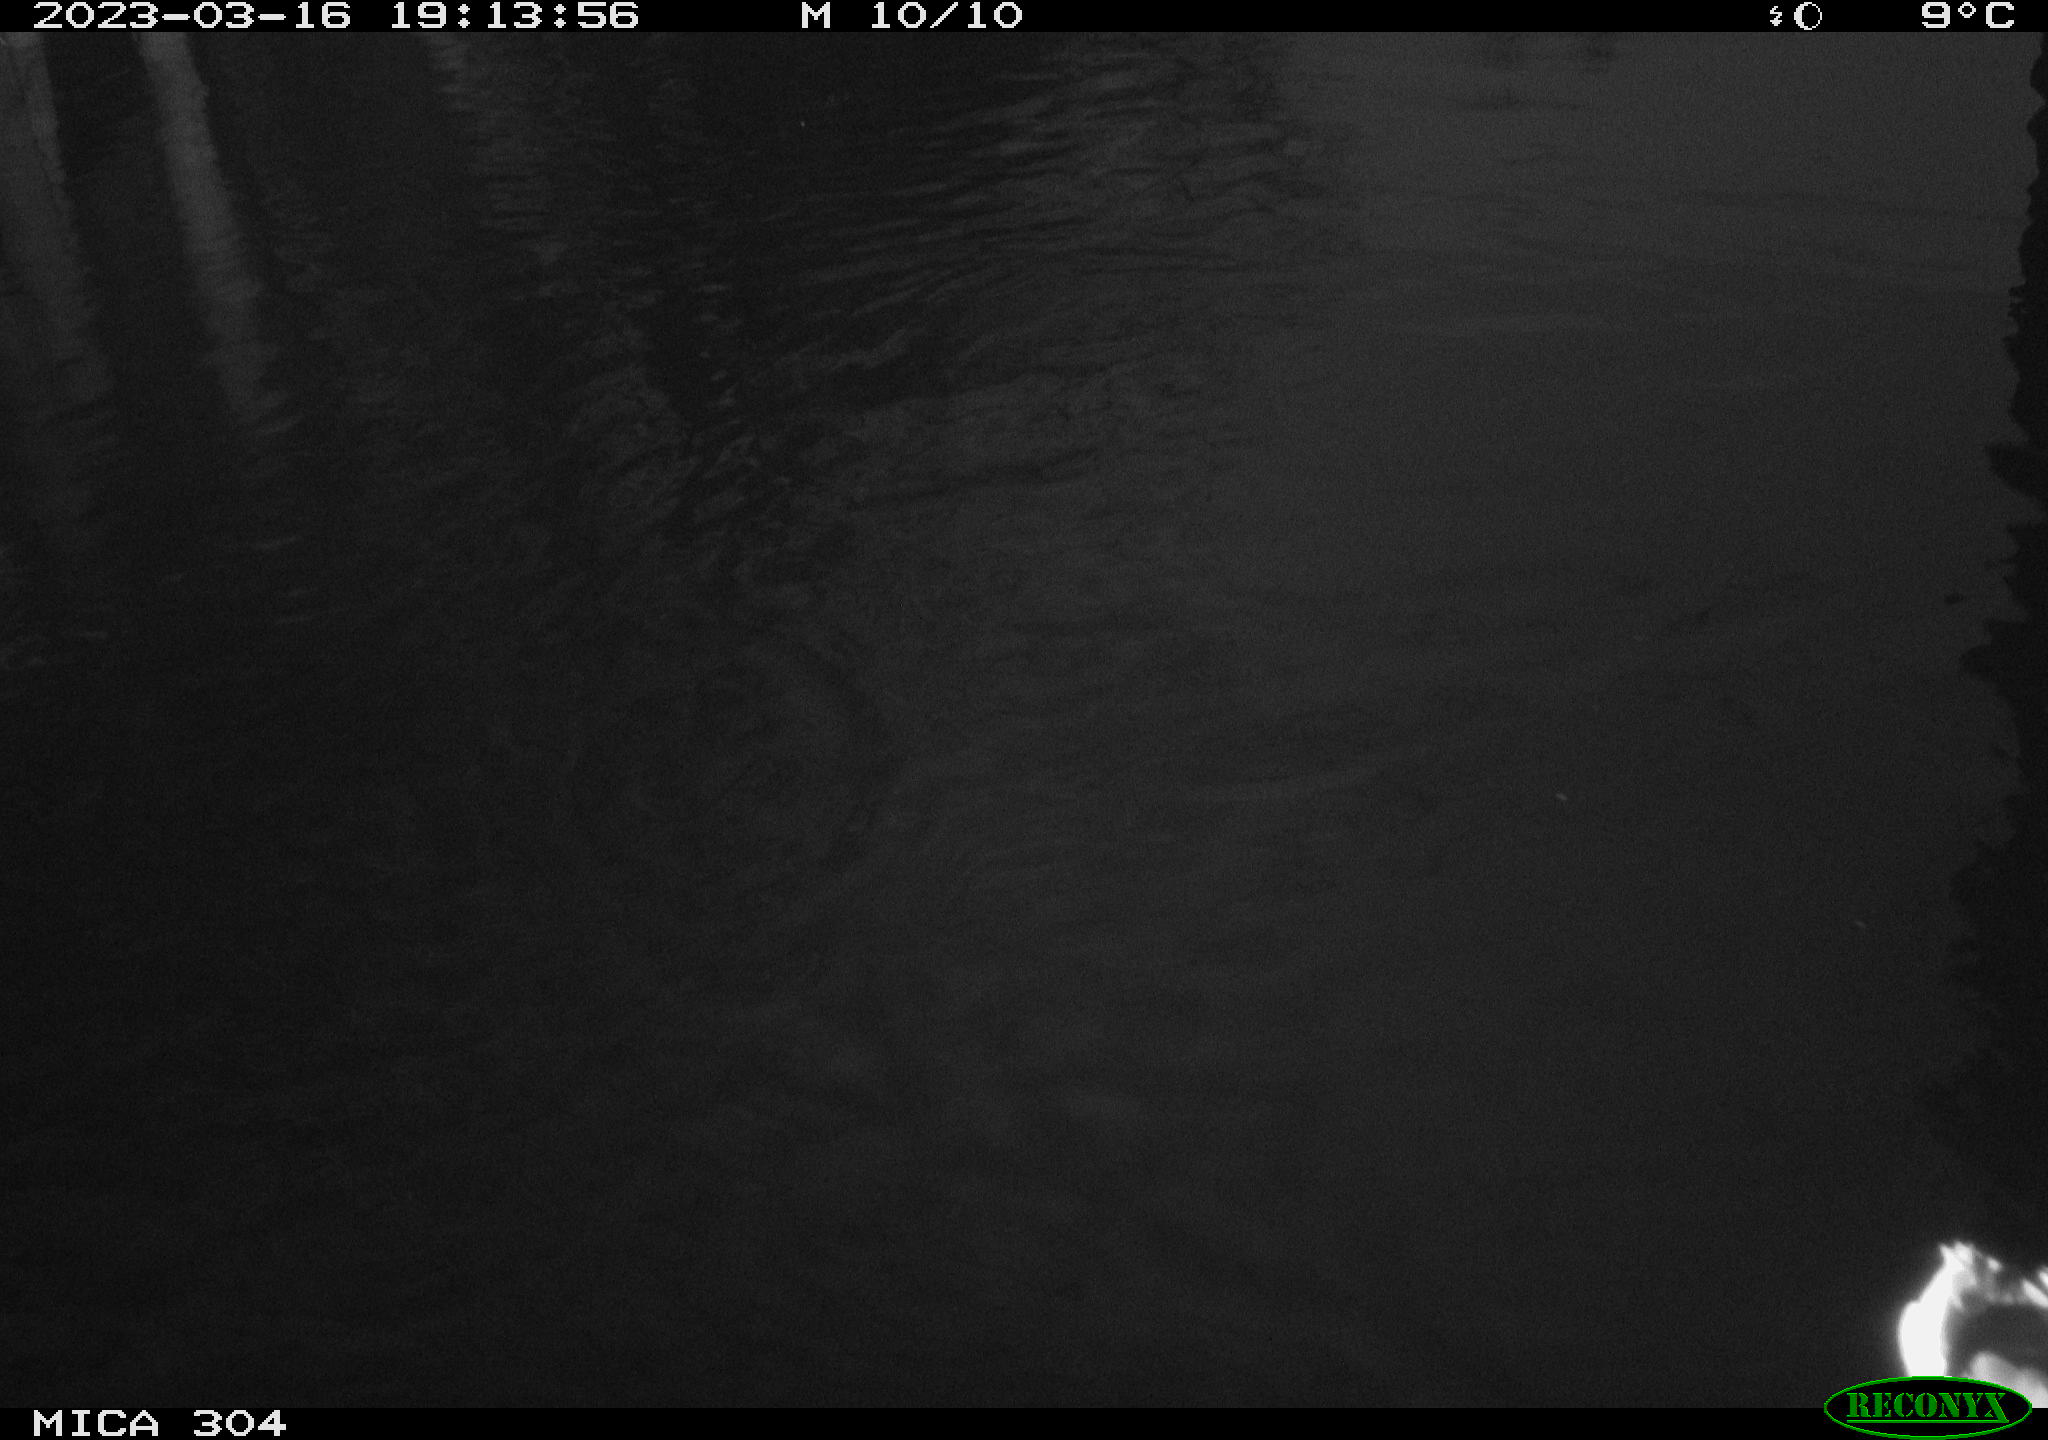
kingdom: Animalia
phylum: Chordata
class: Aves
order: Anseriformes
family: Anatidae
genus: Anas
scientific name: Anas
